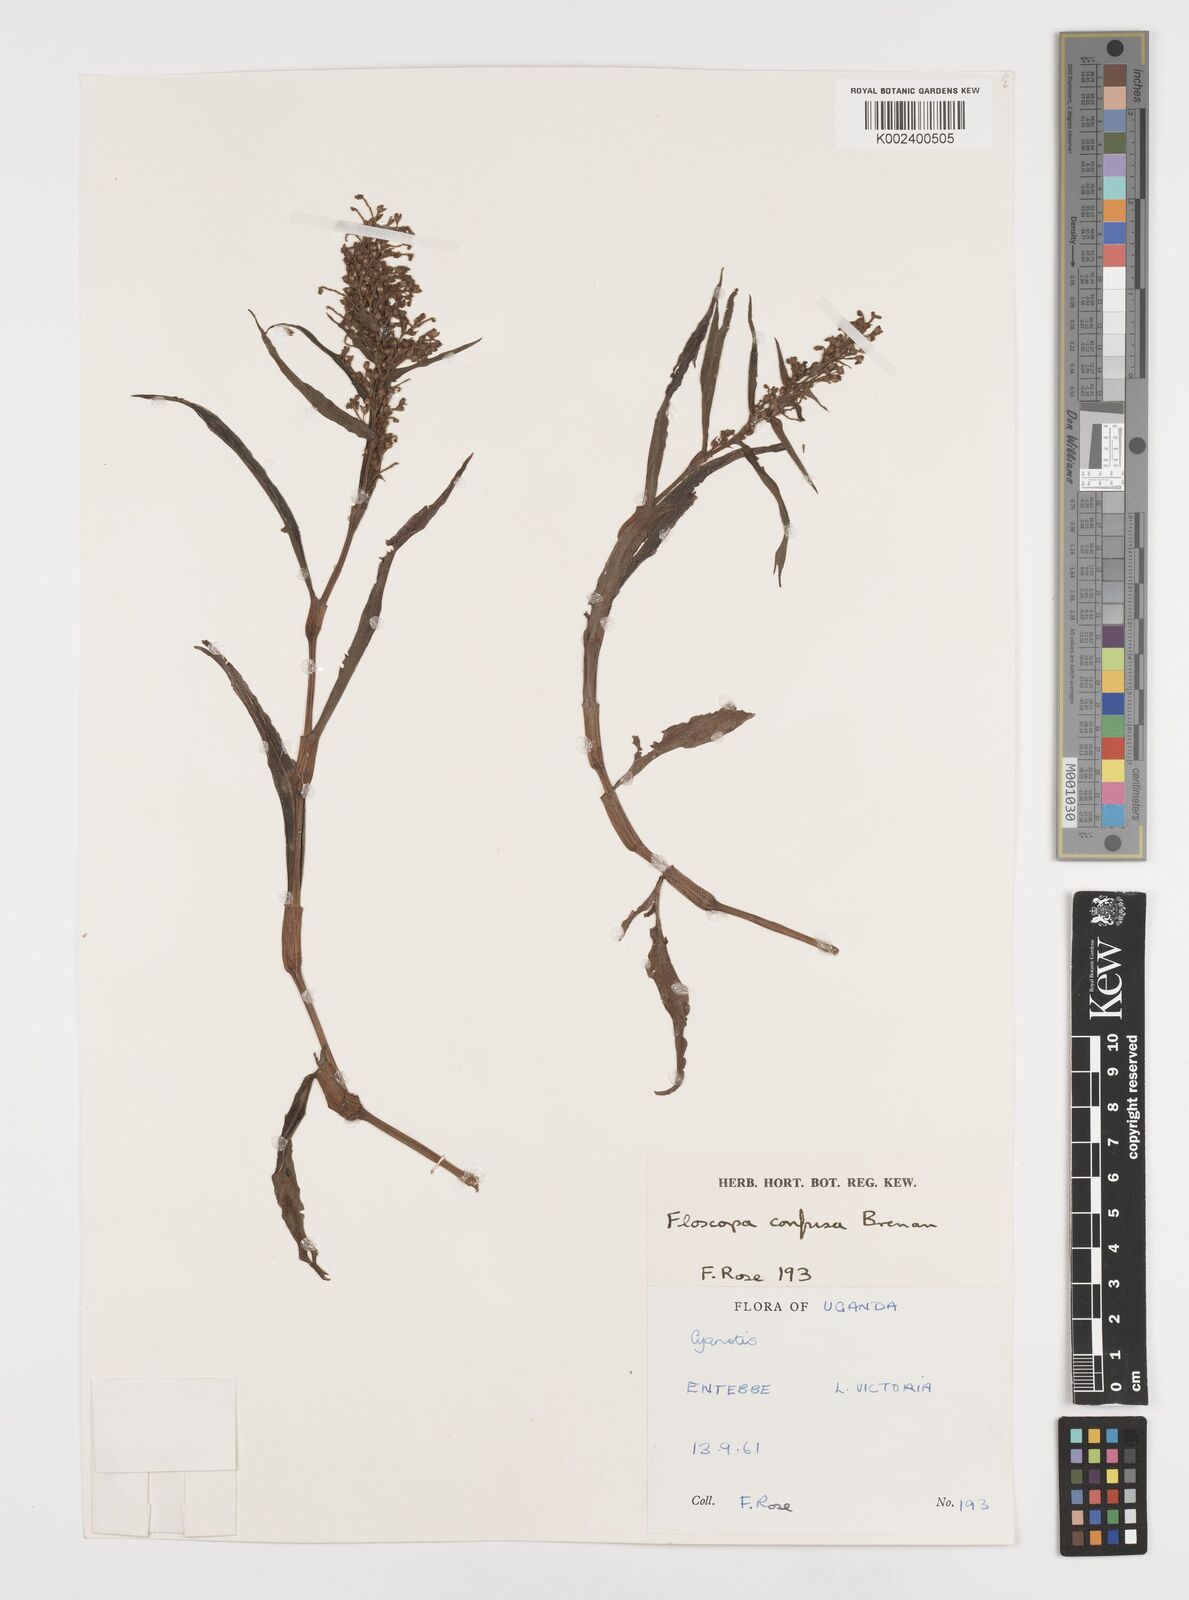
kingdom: Plantae
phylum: Tracheophyta
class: Liliopsida
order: Commelinales
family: Commelinaceae
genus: Floscopa
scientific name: Floscopa confusa
